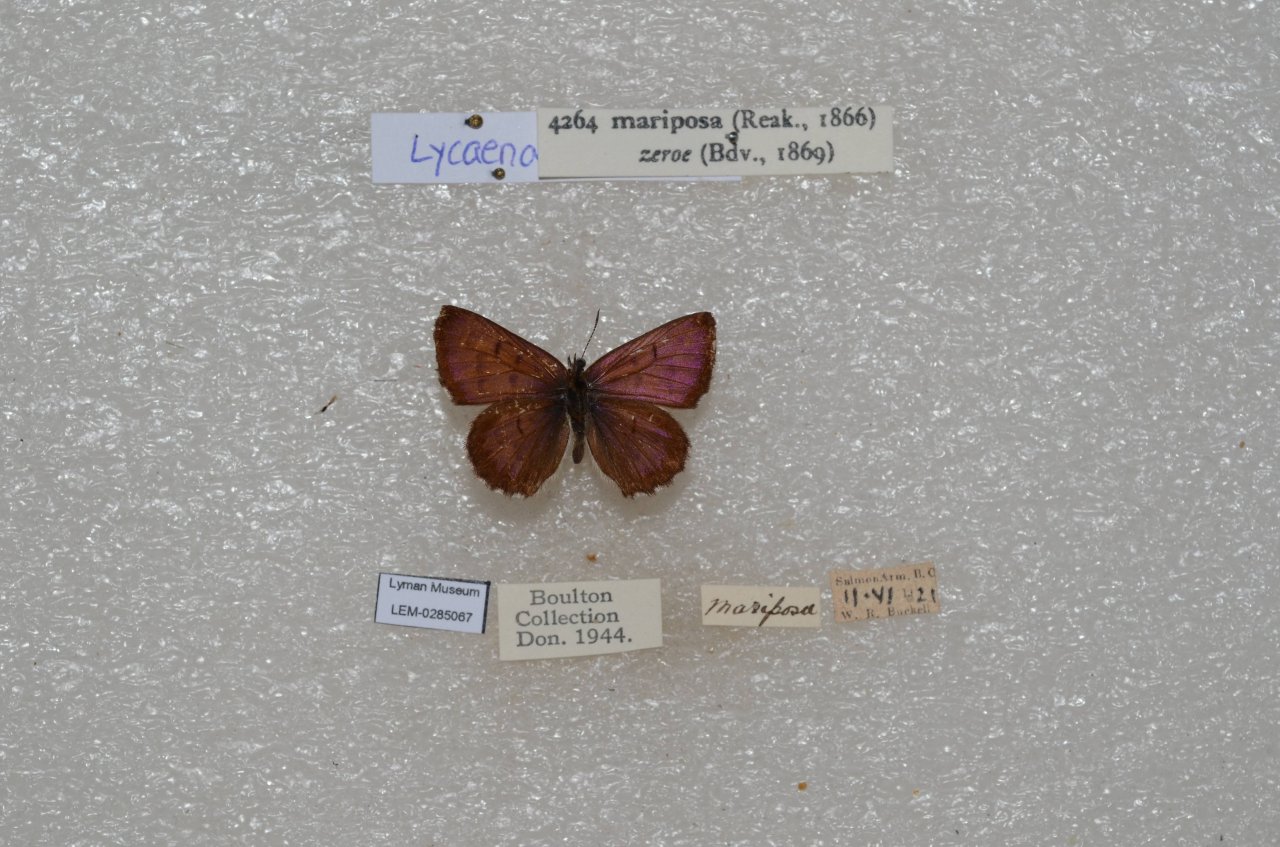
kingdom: Animalia
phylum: Arthropoda
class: Insecta
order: Lepidoptera
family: Lycaenidae
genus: Lycaena
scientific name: Lycaena mariposa
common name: Mariposa Copper
